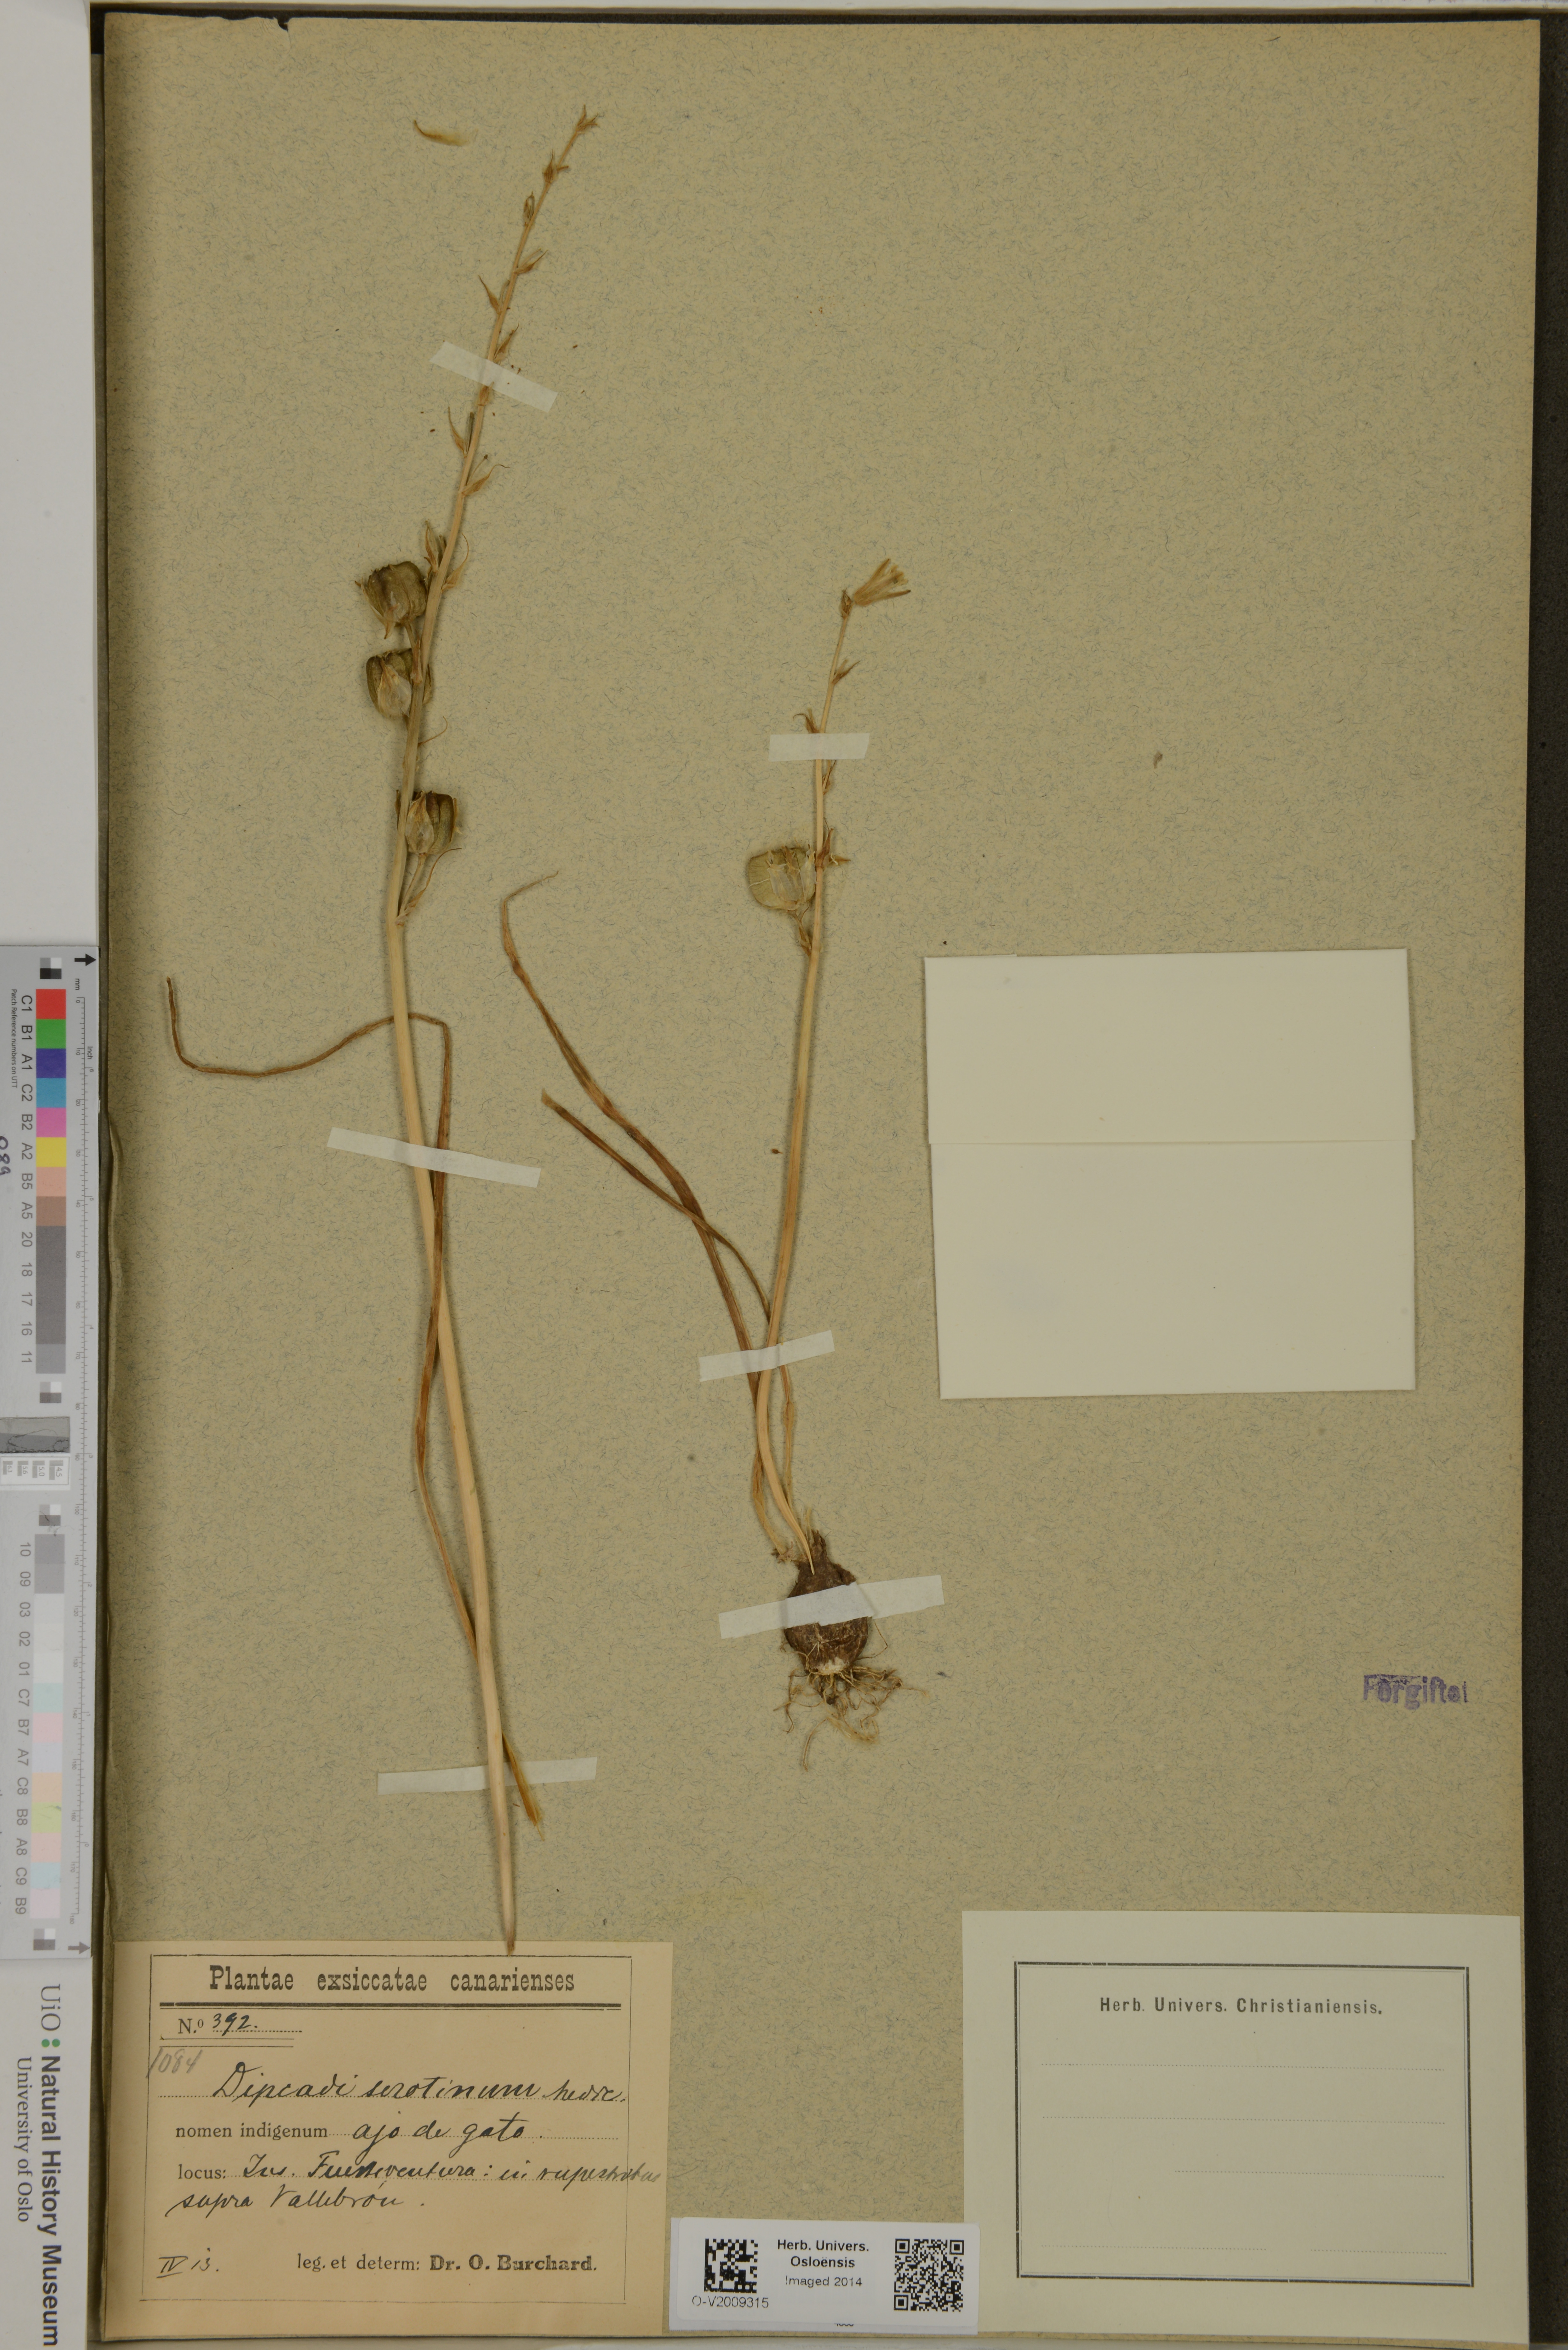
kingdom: Plantae
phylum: Tracheophyta
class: Liliopsida
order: Asparagales
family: Asparagaceae
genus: Dipcadi
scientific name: Dipcadi serotinum
